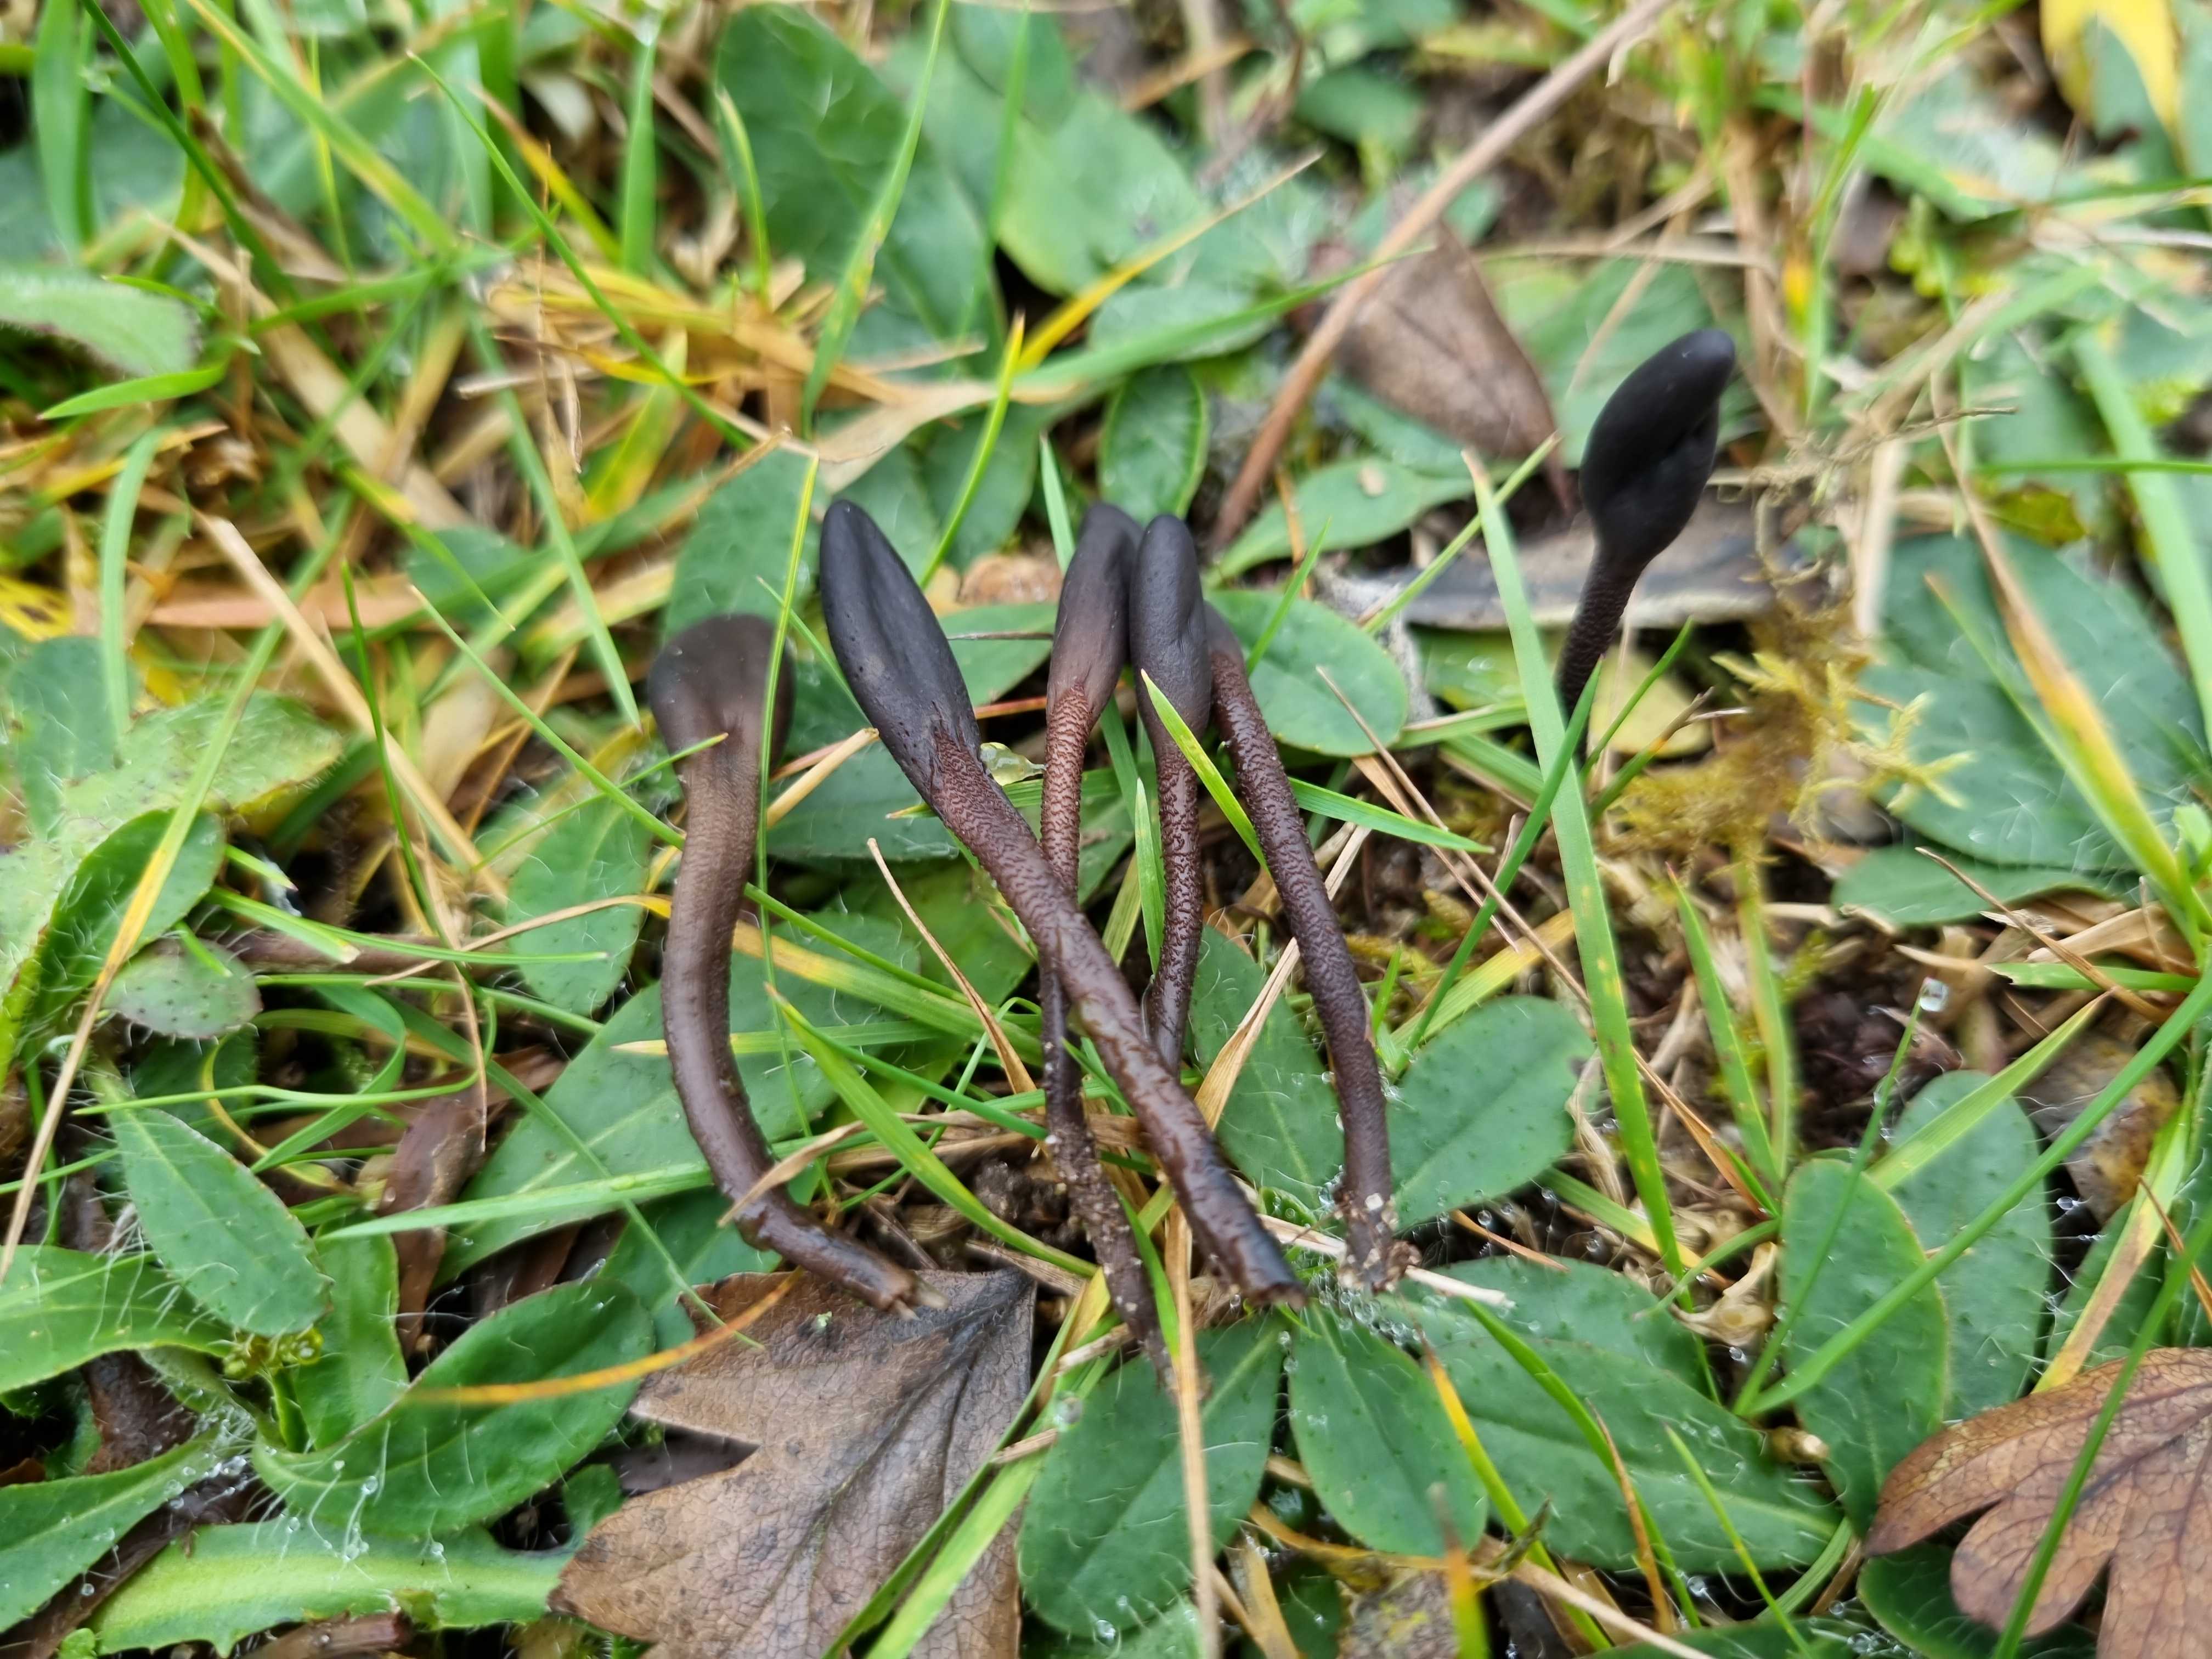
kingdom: Fungi
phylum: Ascomycota
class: Geoglossomycetes
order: Geoglossales
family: Geoglossaceae
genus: Geoglossum
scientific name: Geoglossum fallax
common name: småskællet jordtunge
